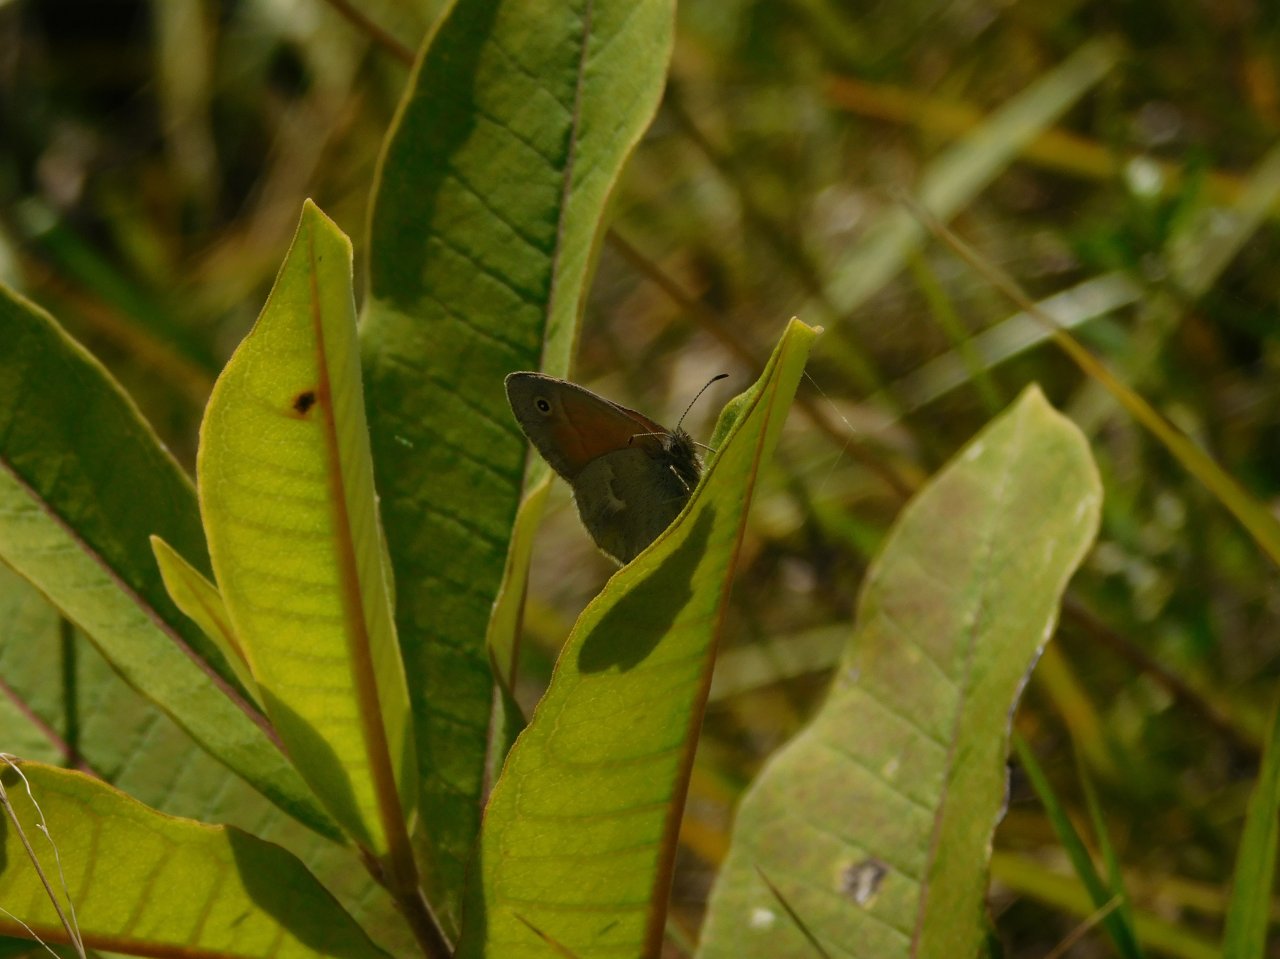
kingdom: Animalia
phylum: Arthropoda
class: Insecta
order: Lepidoptera
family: Nymphalidae
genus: Coenonympha
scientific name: Coenonympha tullia
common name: Large Heath
